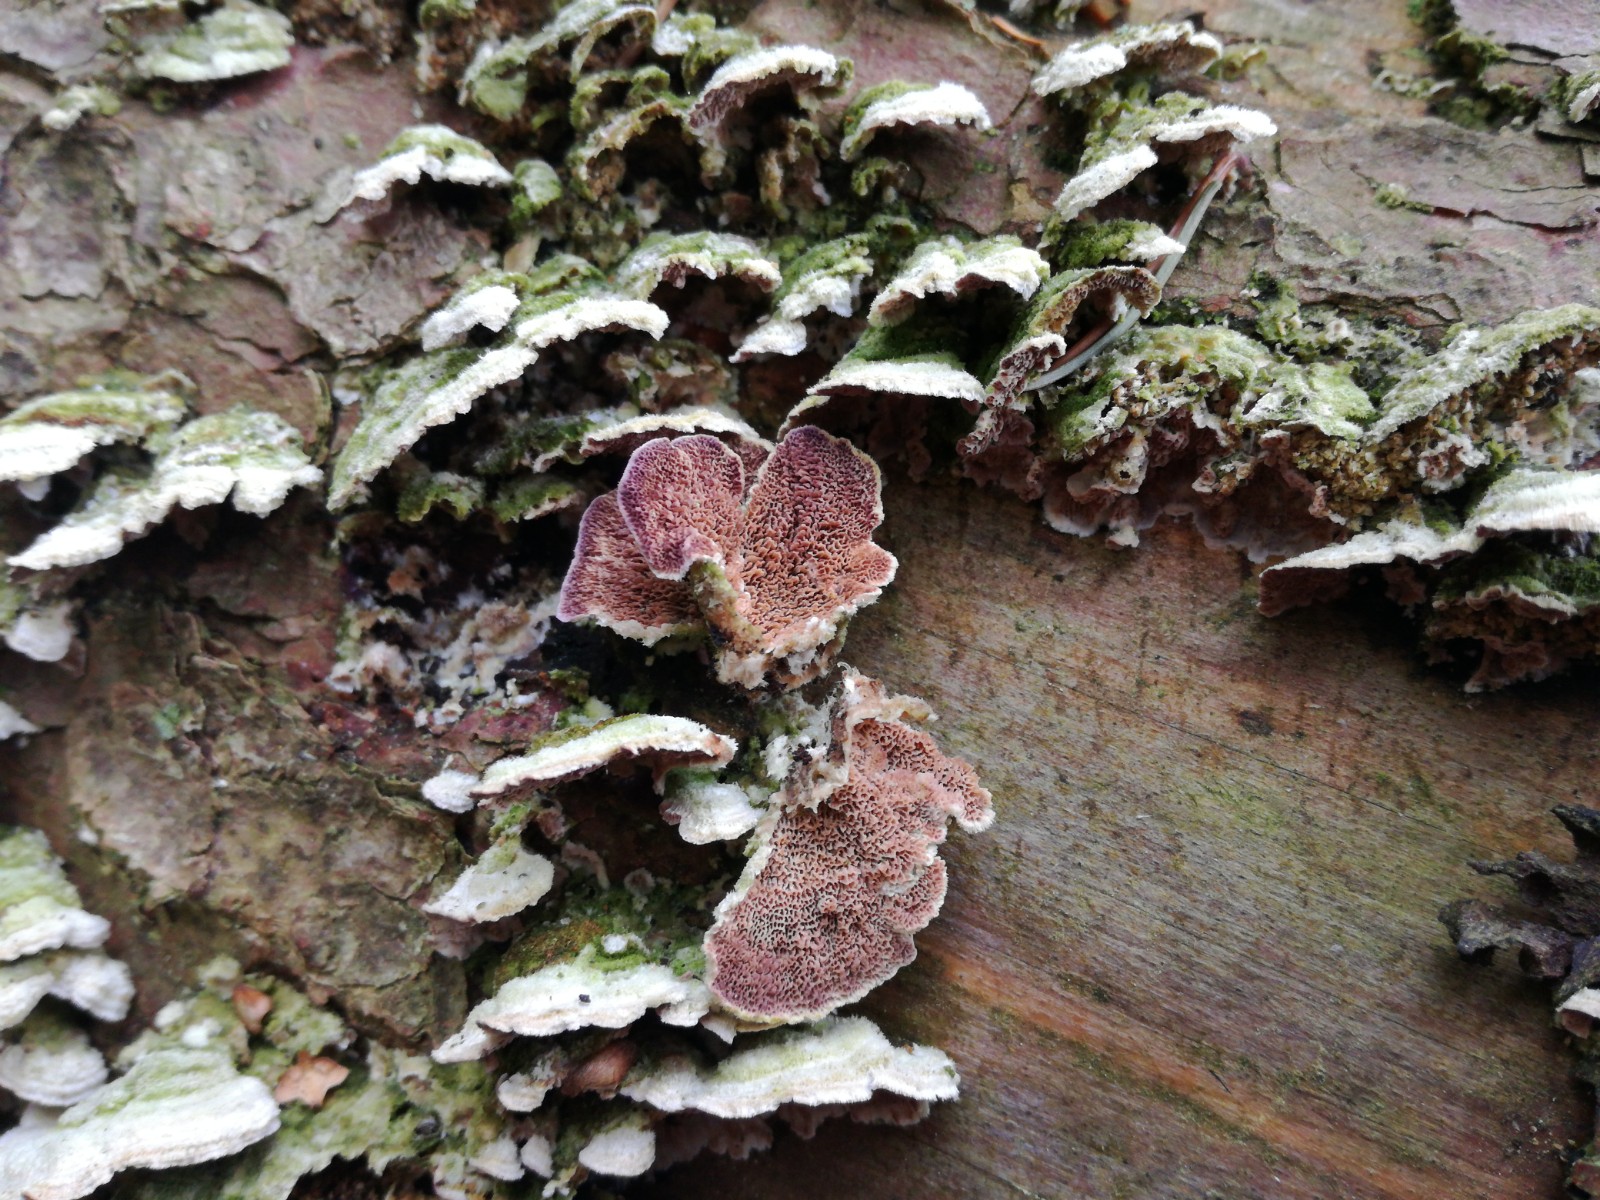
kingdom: Fungi
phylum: Basidiomycota
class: Agaricomycetes
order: Hymenochaetales
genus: Trichaptum
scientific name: Trichaptum abietinum
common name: almindelig violporesvamp
